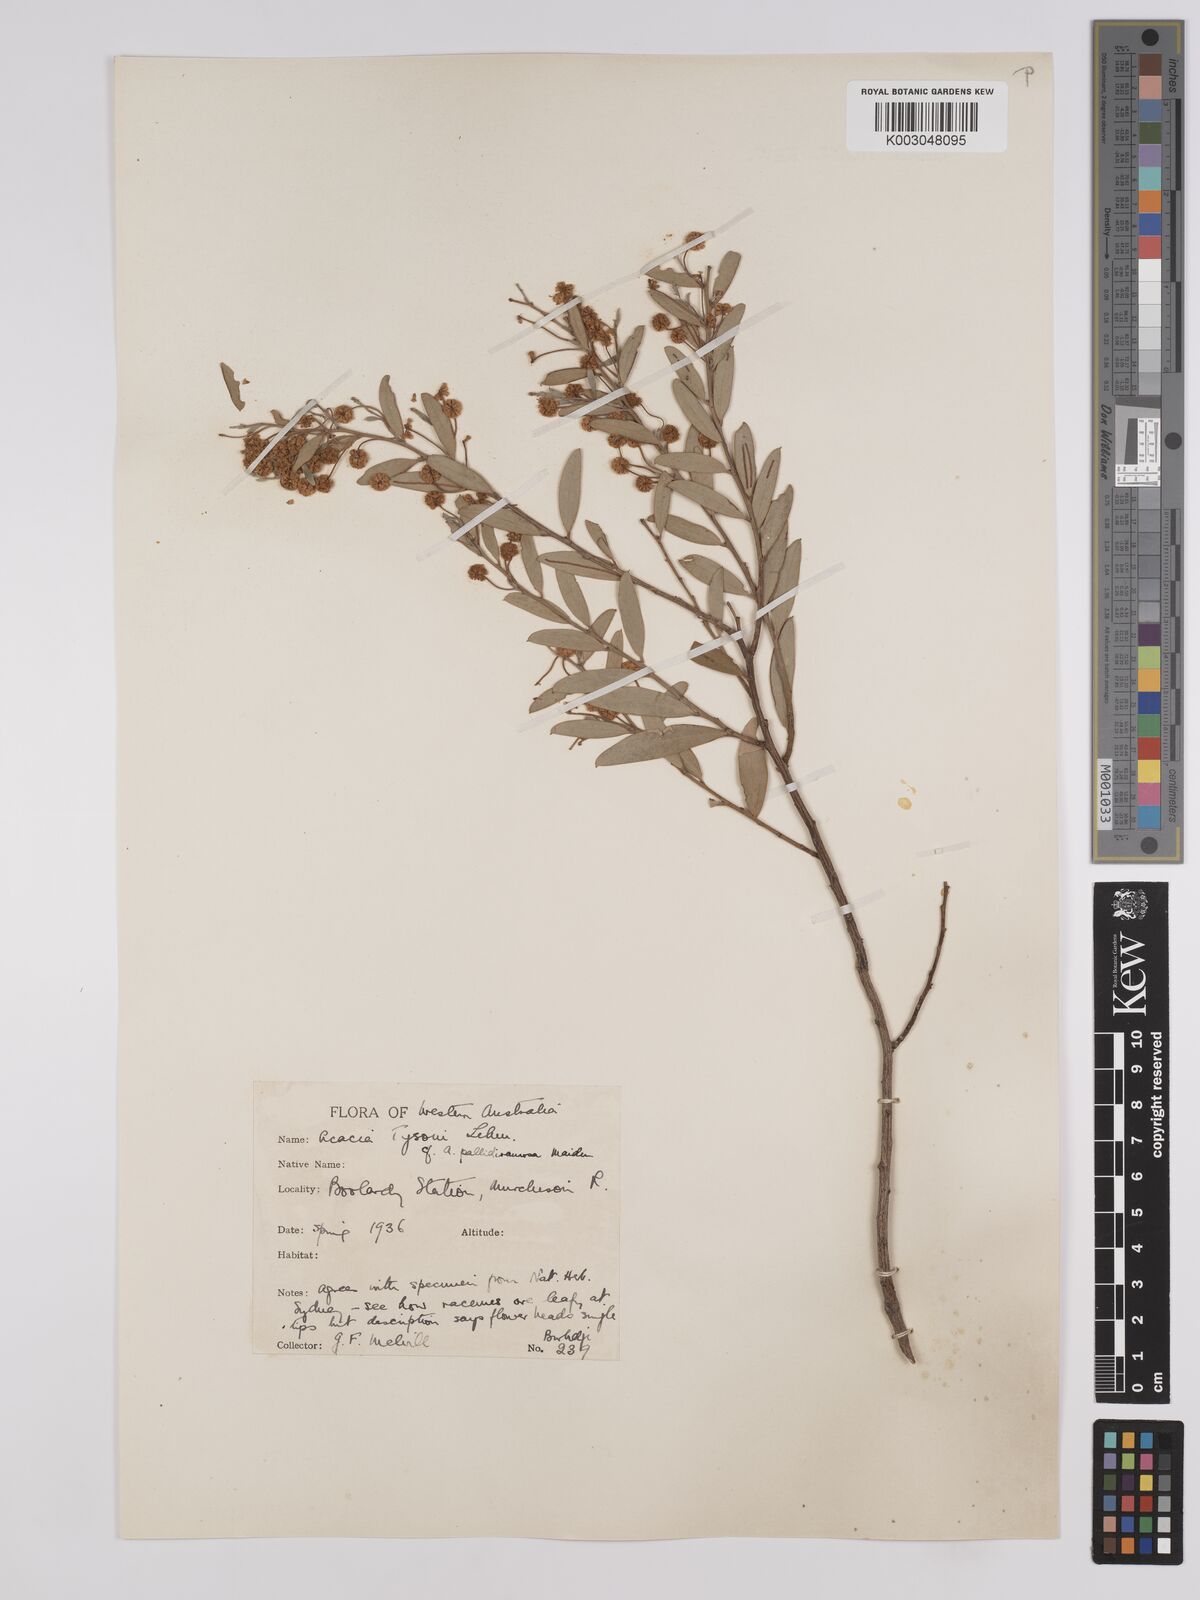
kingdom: Plantae
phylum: Tracheophyta
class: Magnoliopsida
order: Fabales
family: Fabaceae
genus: Acacia
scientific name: Acacia tysonii
